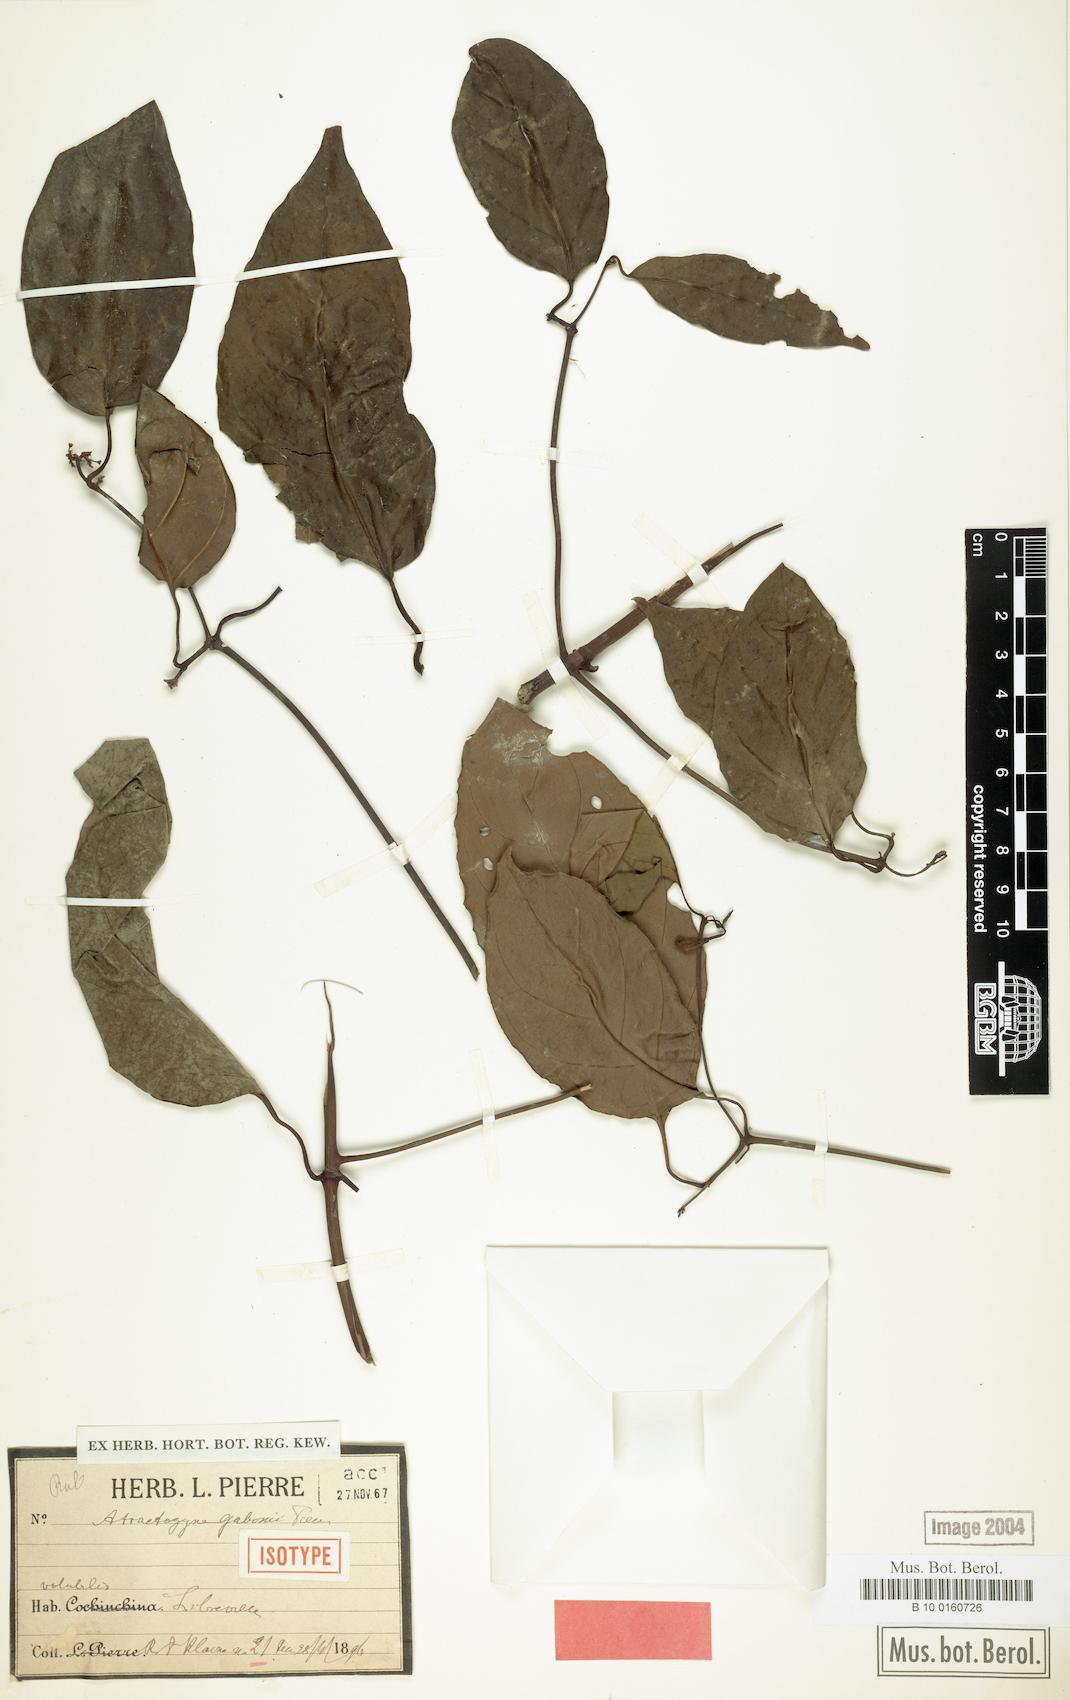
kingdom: Plantae
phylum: Tracheophyta
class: Magnoliopsida
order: Gentianales
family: Rubiaceae
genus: Atractogyne
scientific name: Atractogyne gabonii
